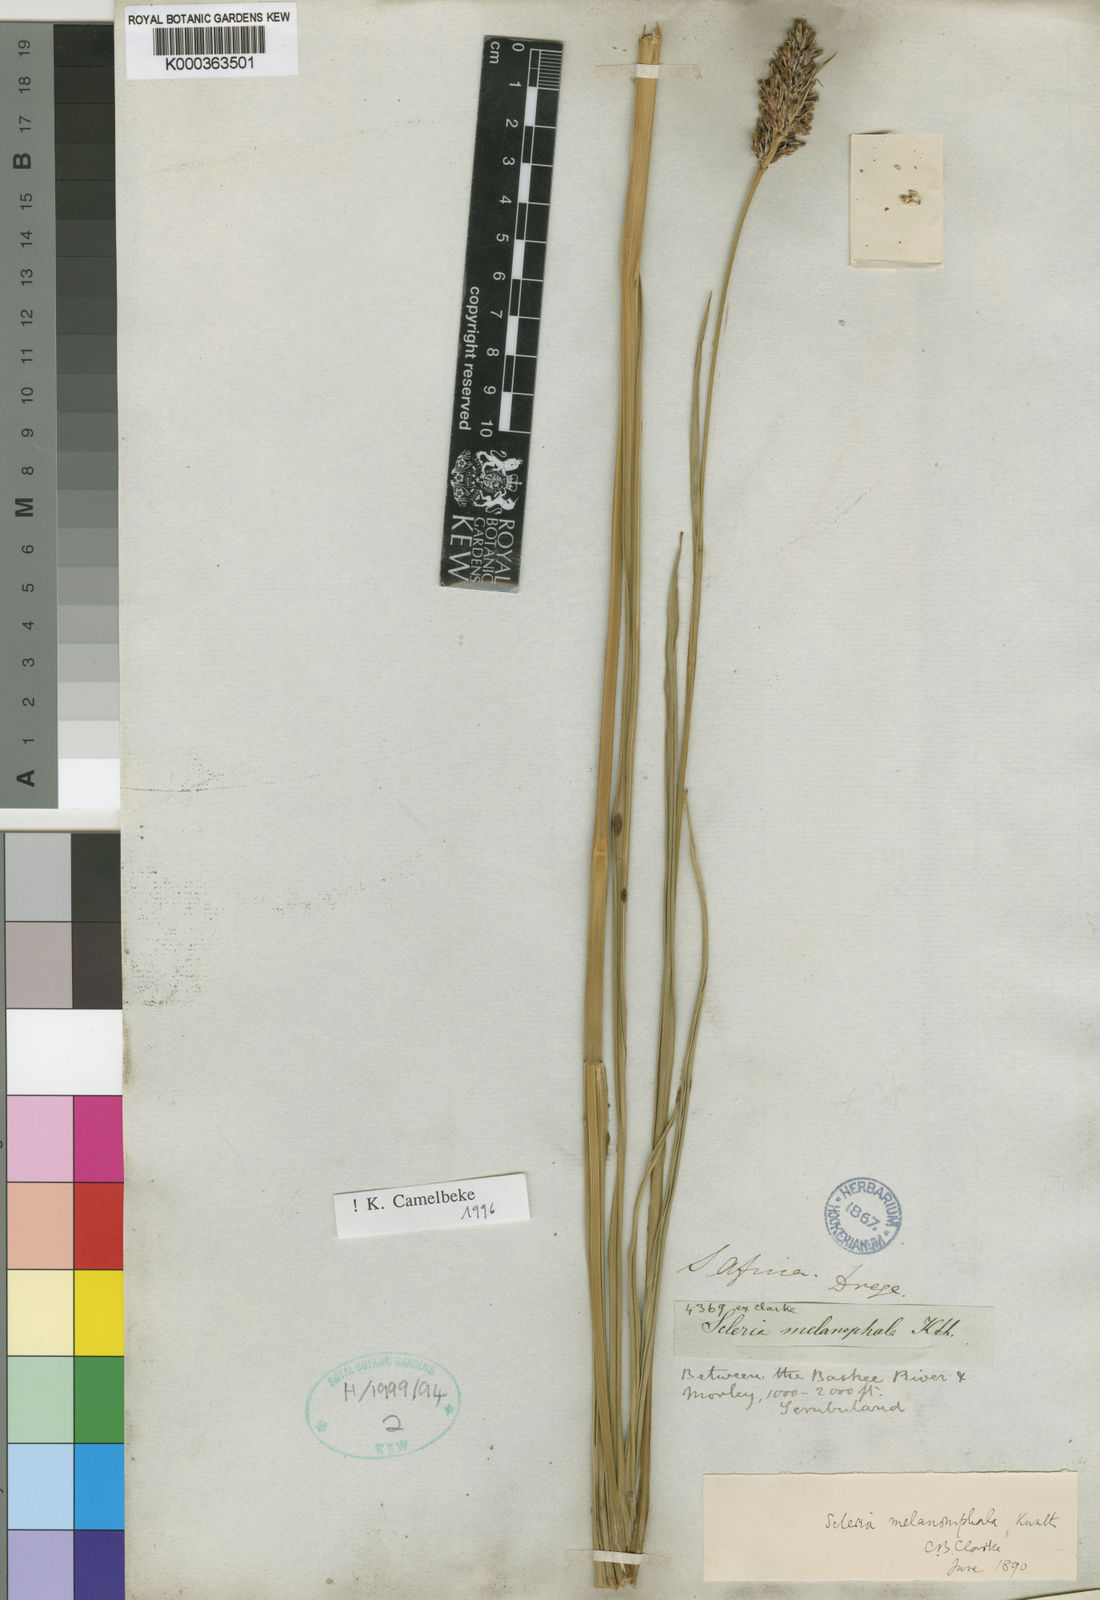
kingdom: Plantae
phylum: Tracheophyta
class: Liliopsida
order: Poales
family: Cyperaceae
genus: Scleria
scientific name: Scleria melanomphala
